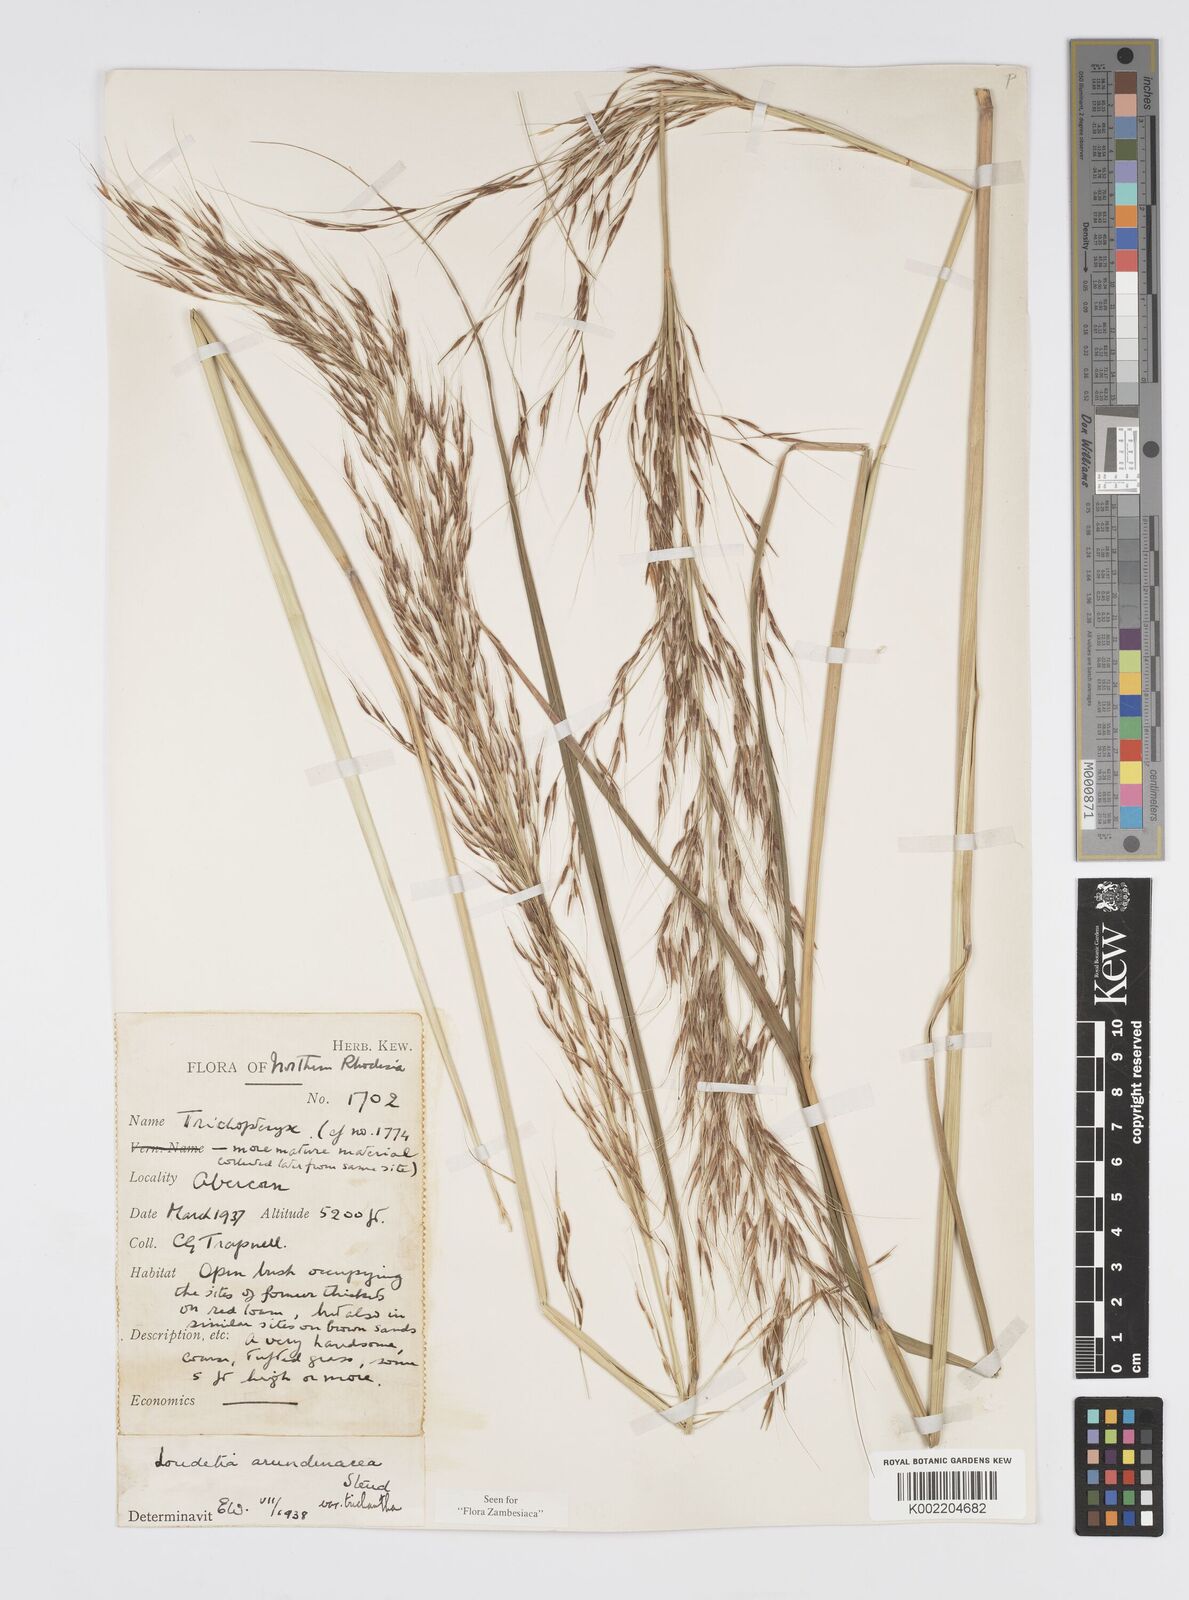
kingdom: Plantae
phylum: Tracheophyta
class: Liliopsida
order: Poales
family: Poaceae
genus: Loudetia
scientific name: Loudetia arundinacea
